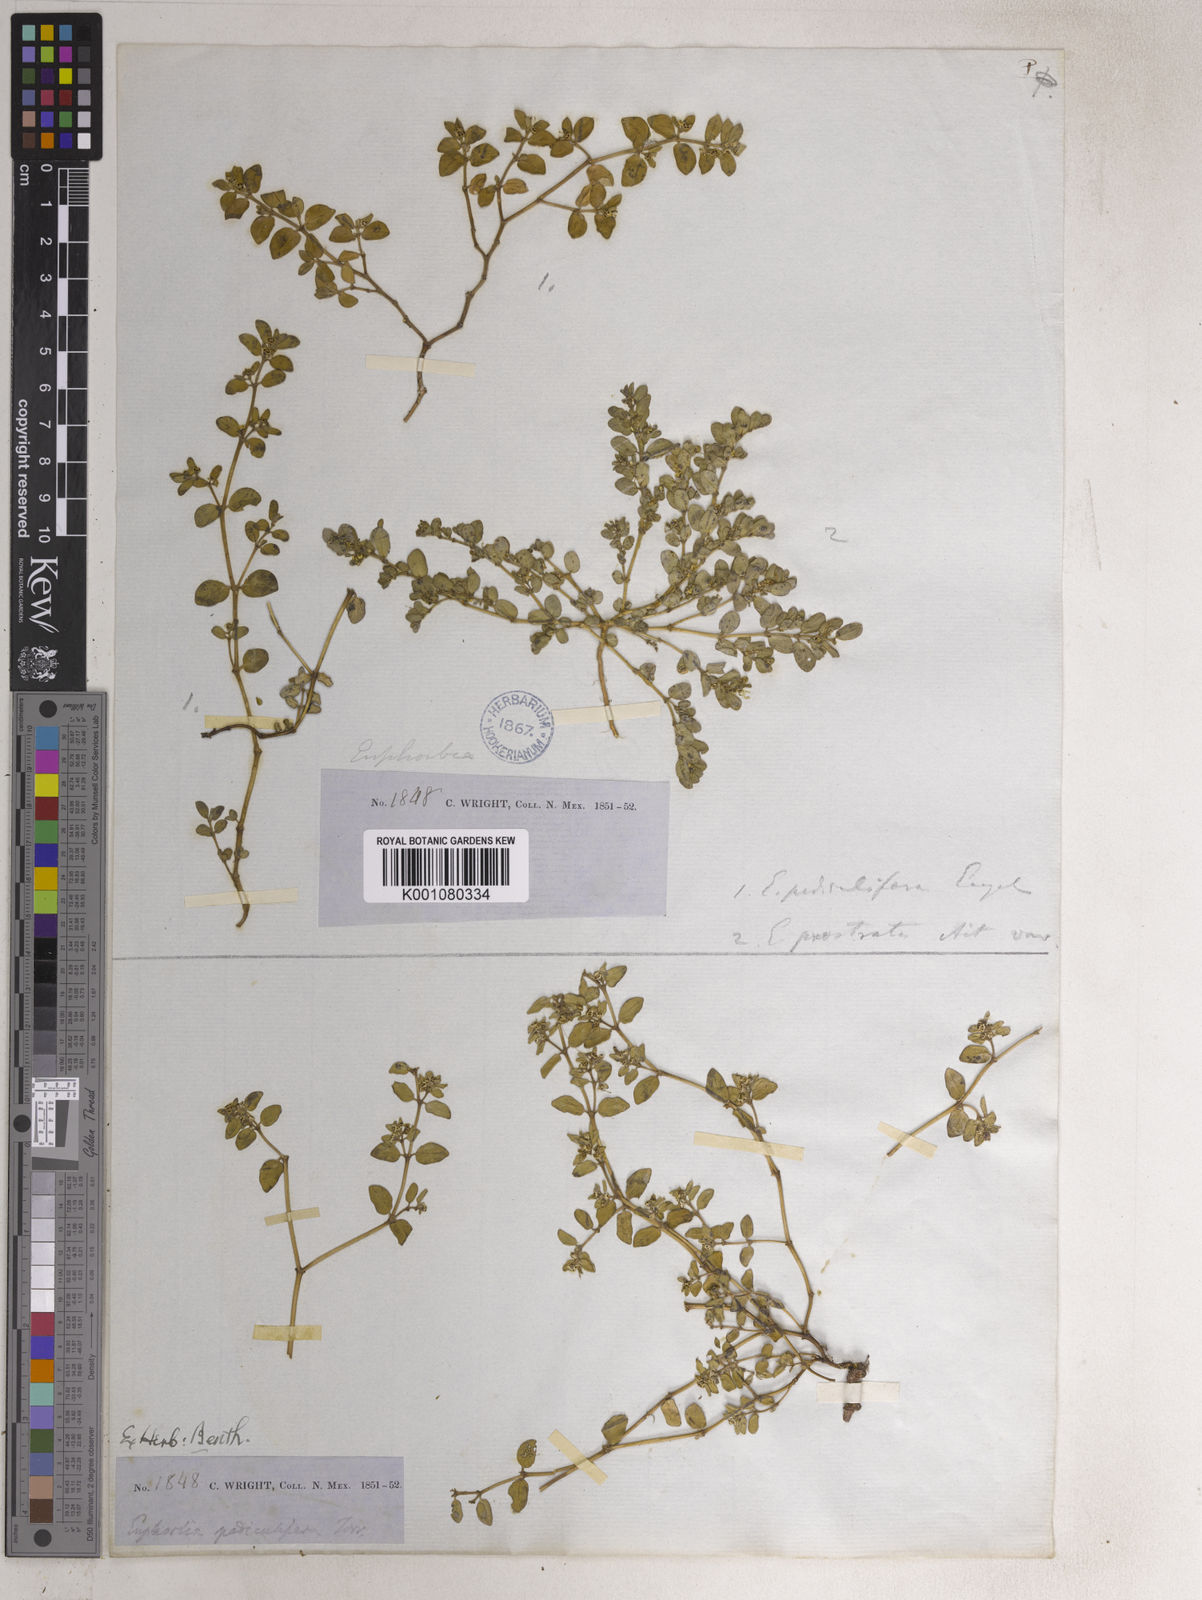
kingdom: Plantae
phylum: Tracheophyta
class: Magnoliopsida
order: Malpighiales
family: Euphorbiaceae
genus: Euphorbia
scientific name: Euphorbia pediculifera
